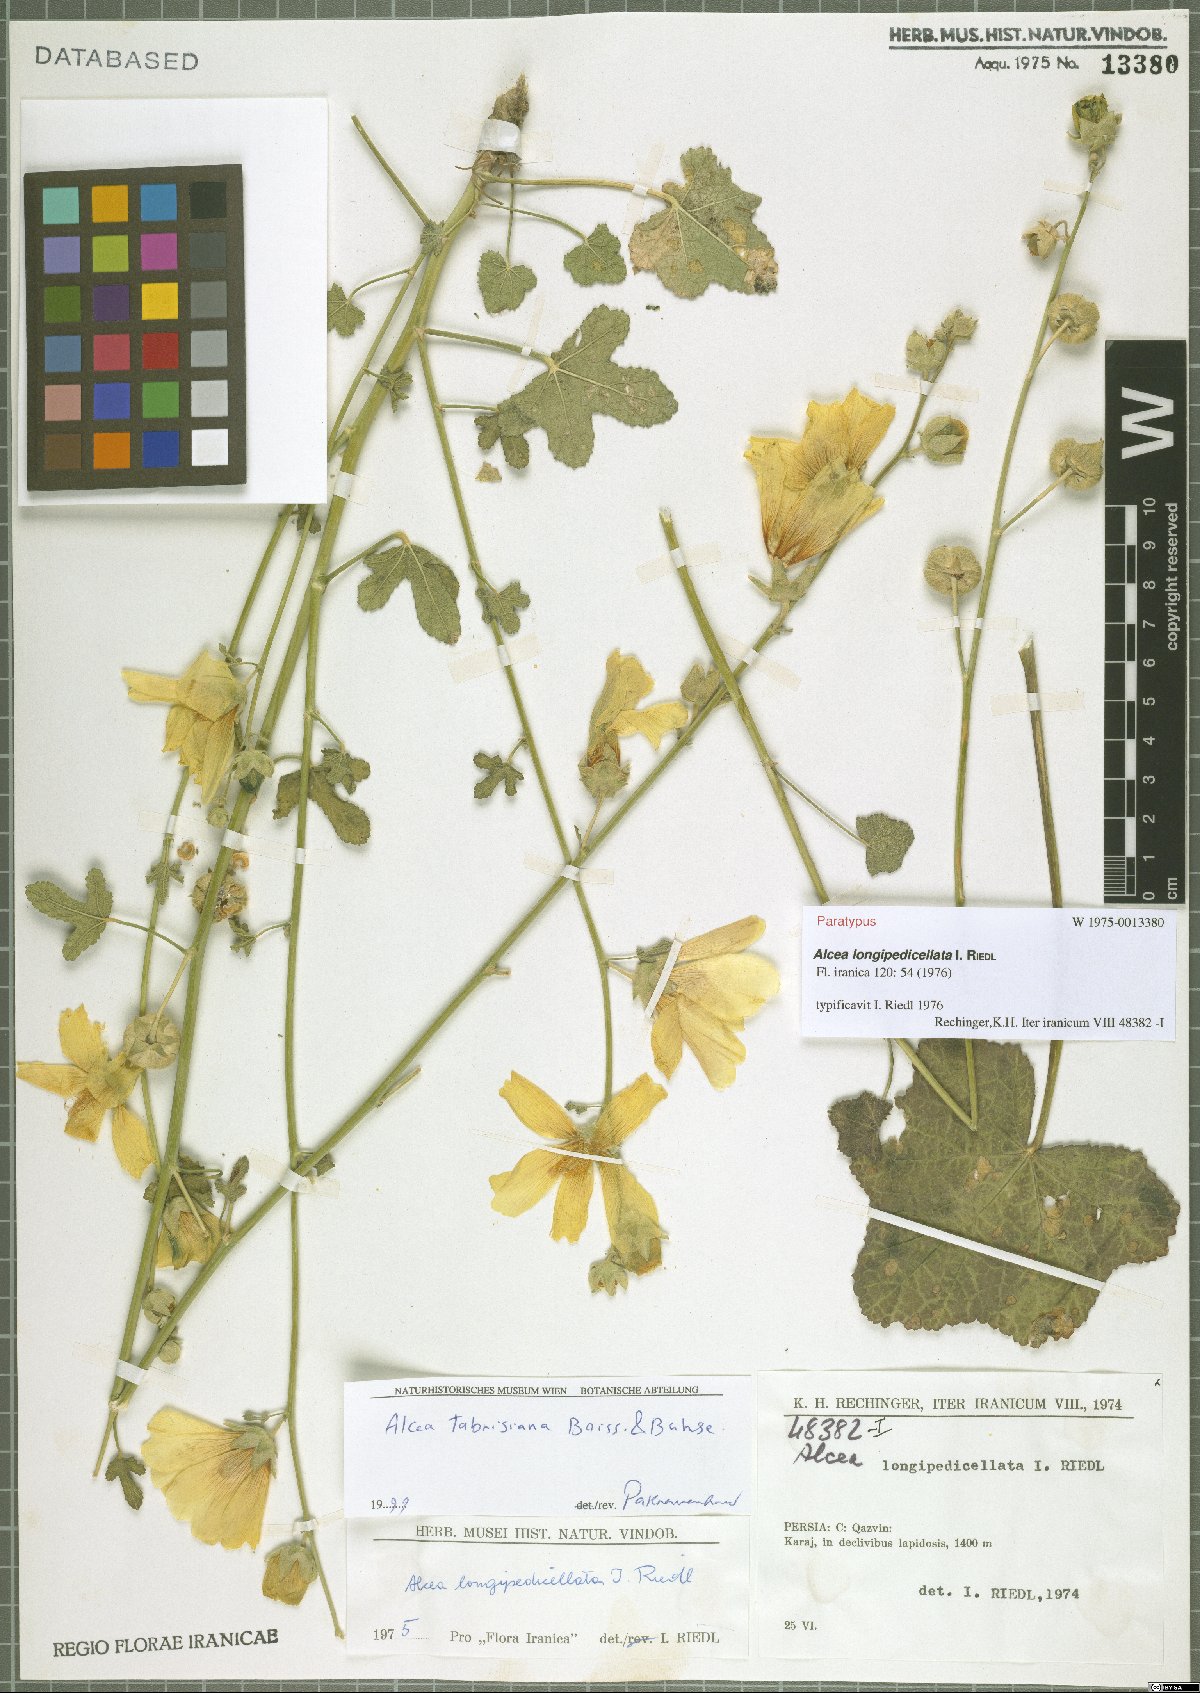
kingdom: Plantae
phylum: Tracheophyta
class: Magnoliopsida
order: Malvales
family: Malvaceae
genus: Alcea
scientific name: Alcea tabrisiana
